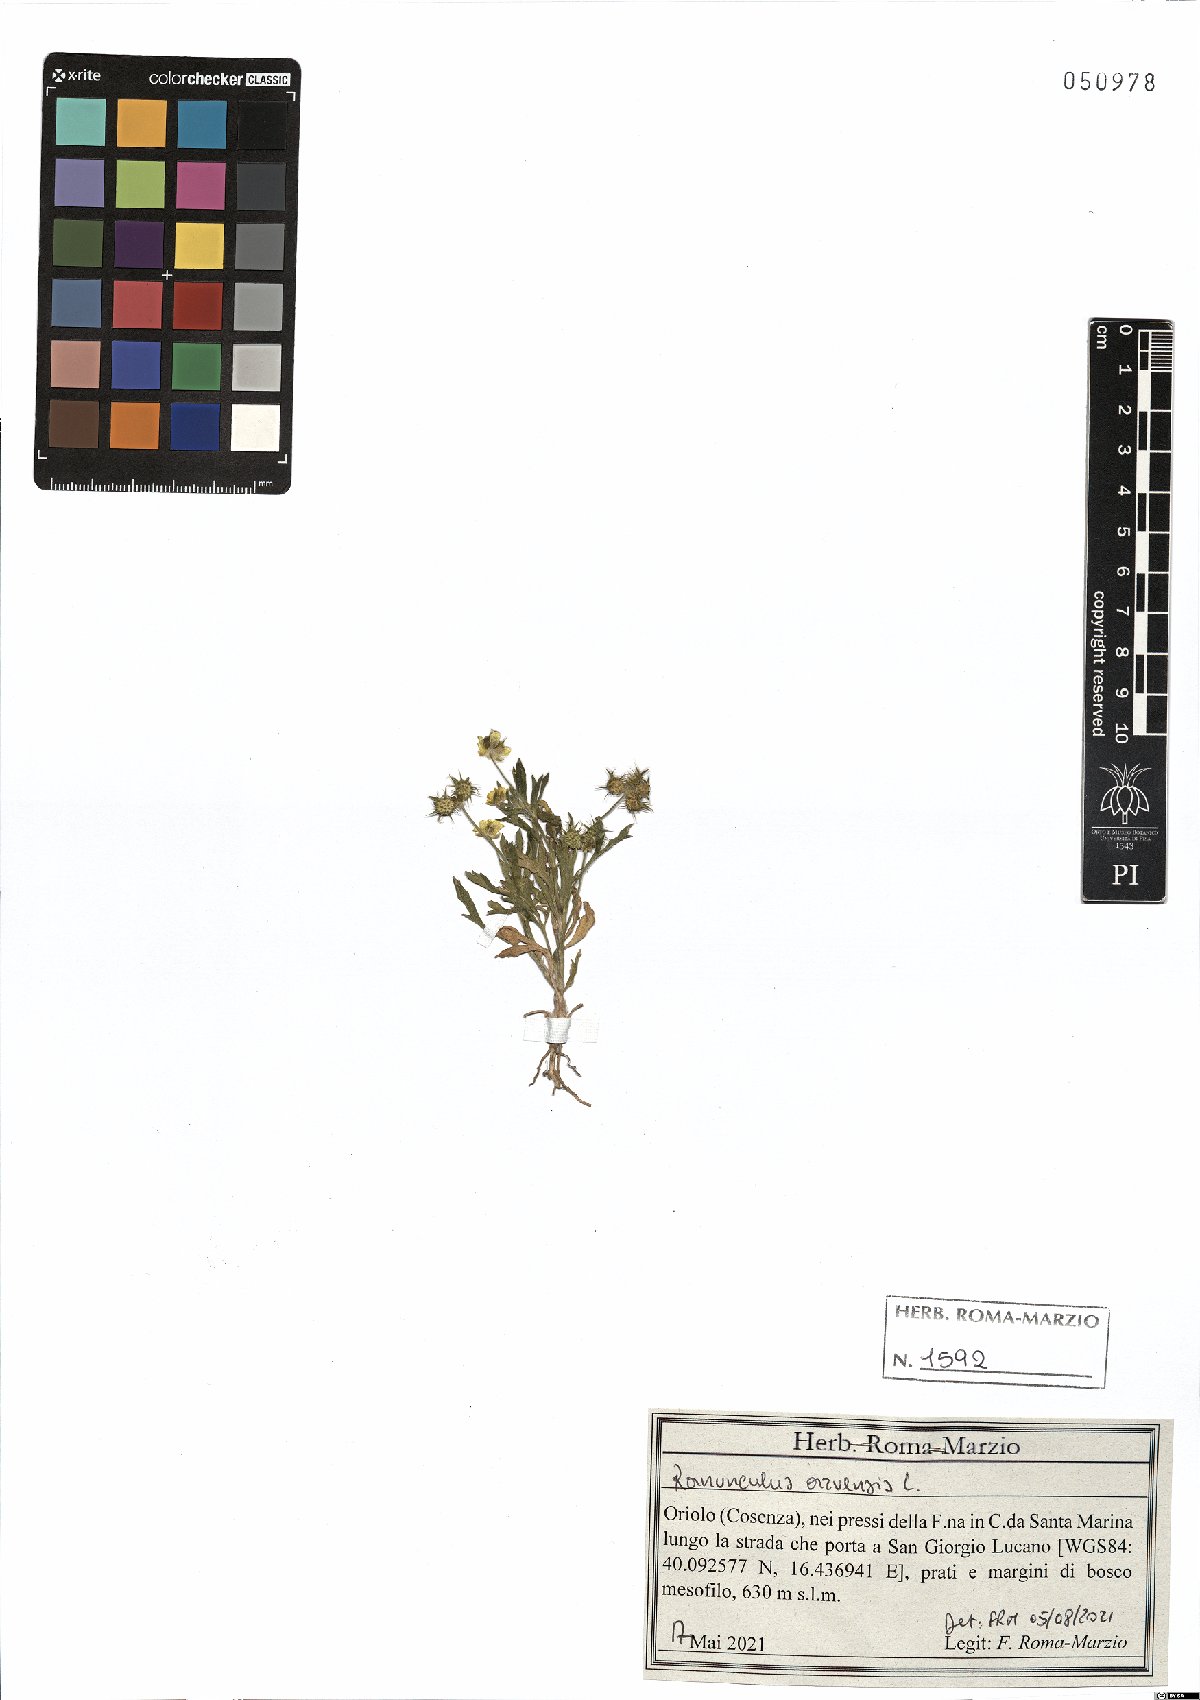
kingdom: Plantae
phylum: Tracheophyta
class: Magnoliopsida
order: Ranunculales
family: Ranunculaceae
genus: Ranunculus
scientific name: Ranunculus arvensis
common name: Corn buttercup
